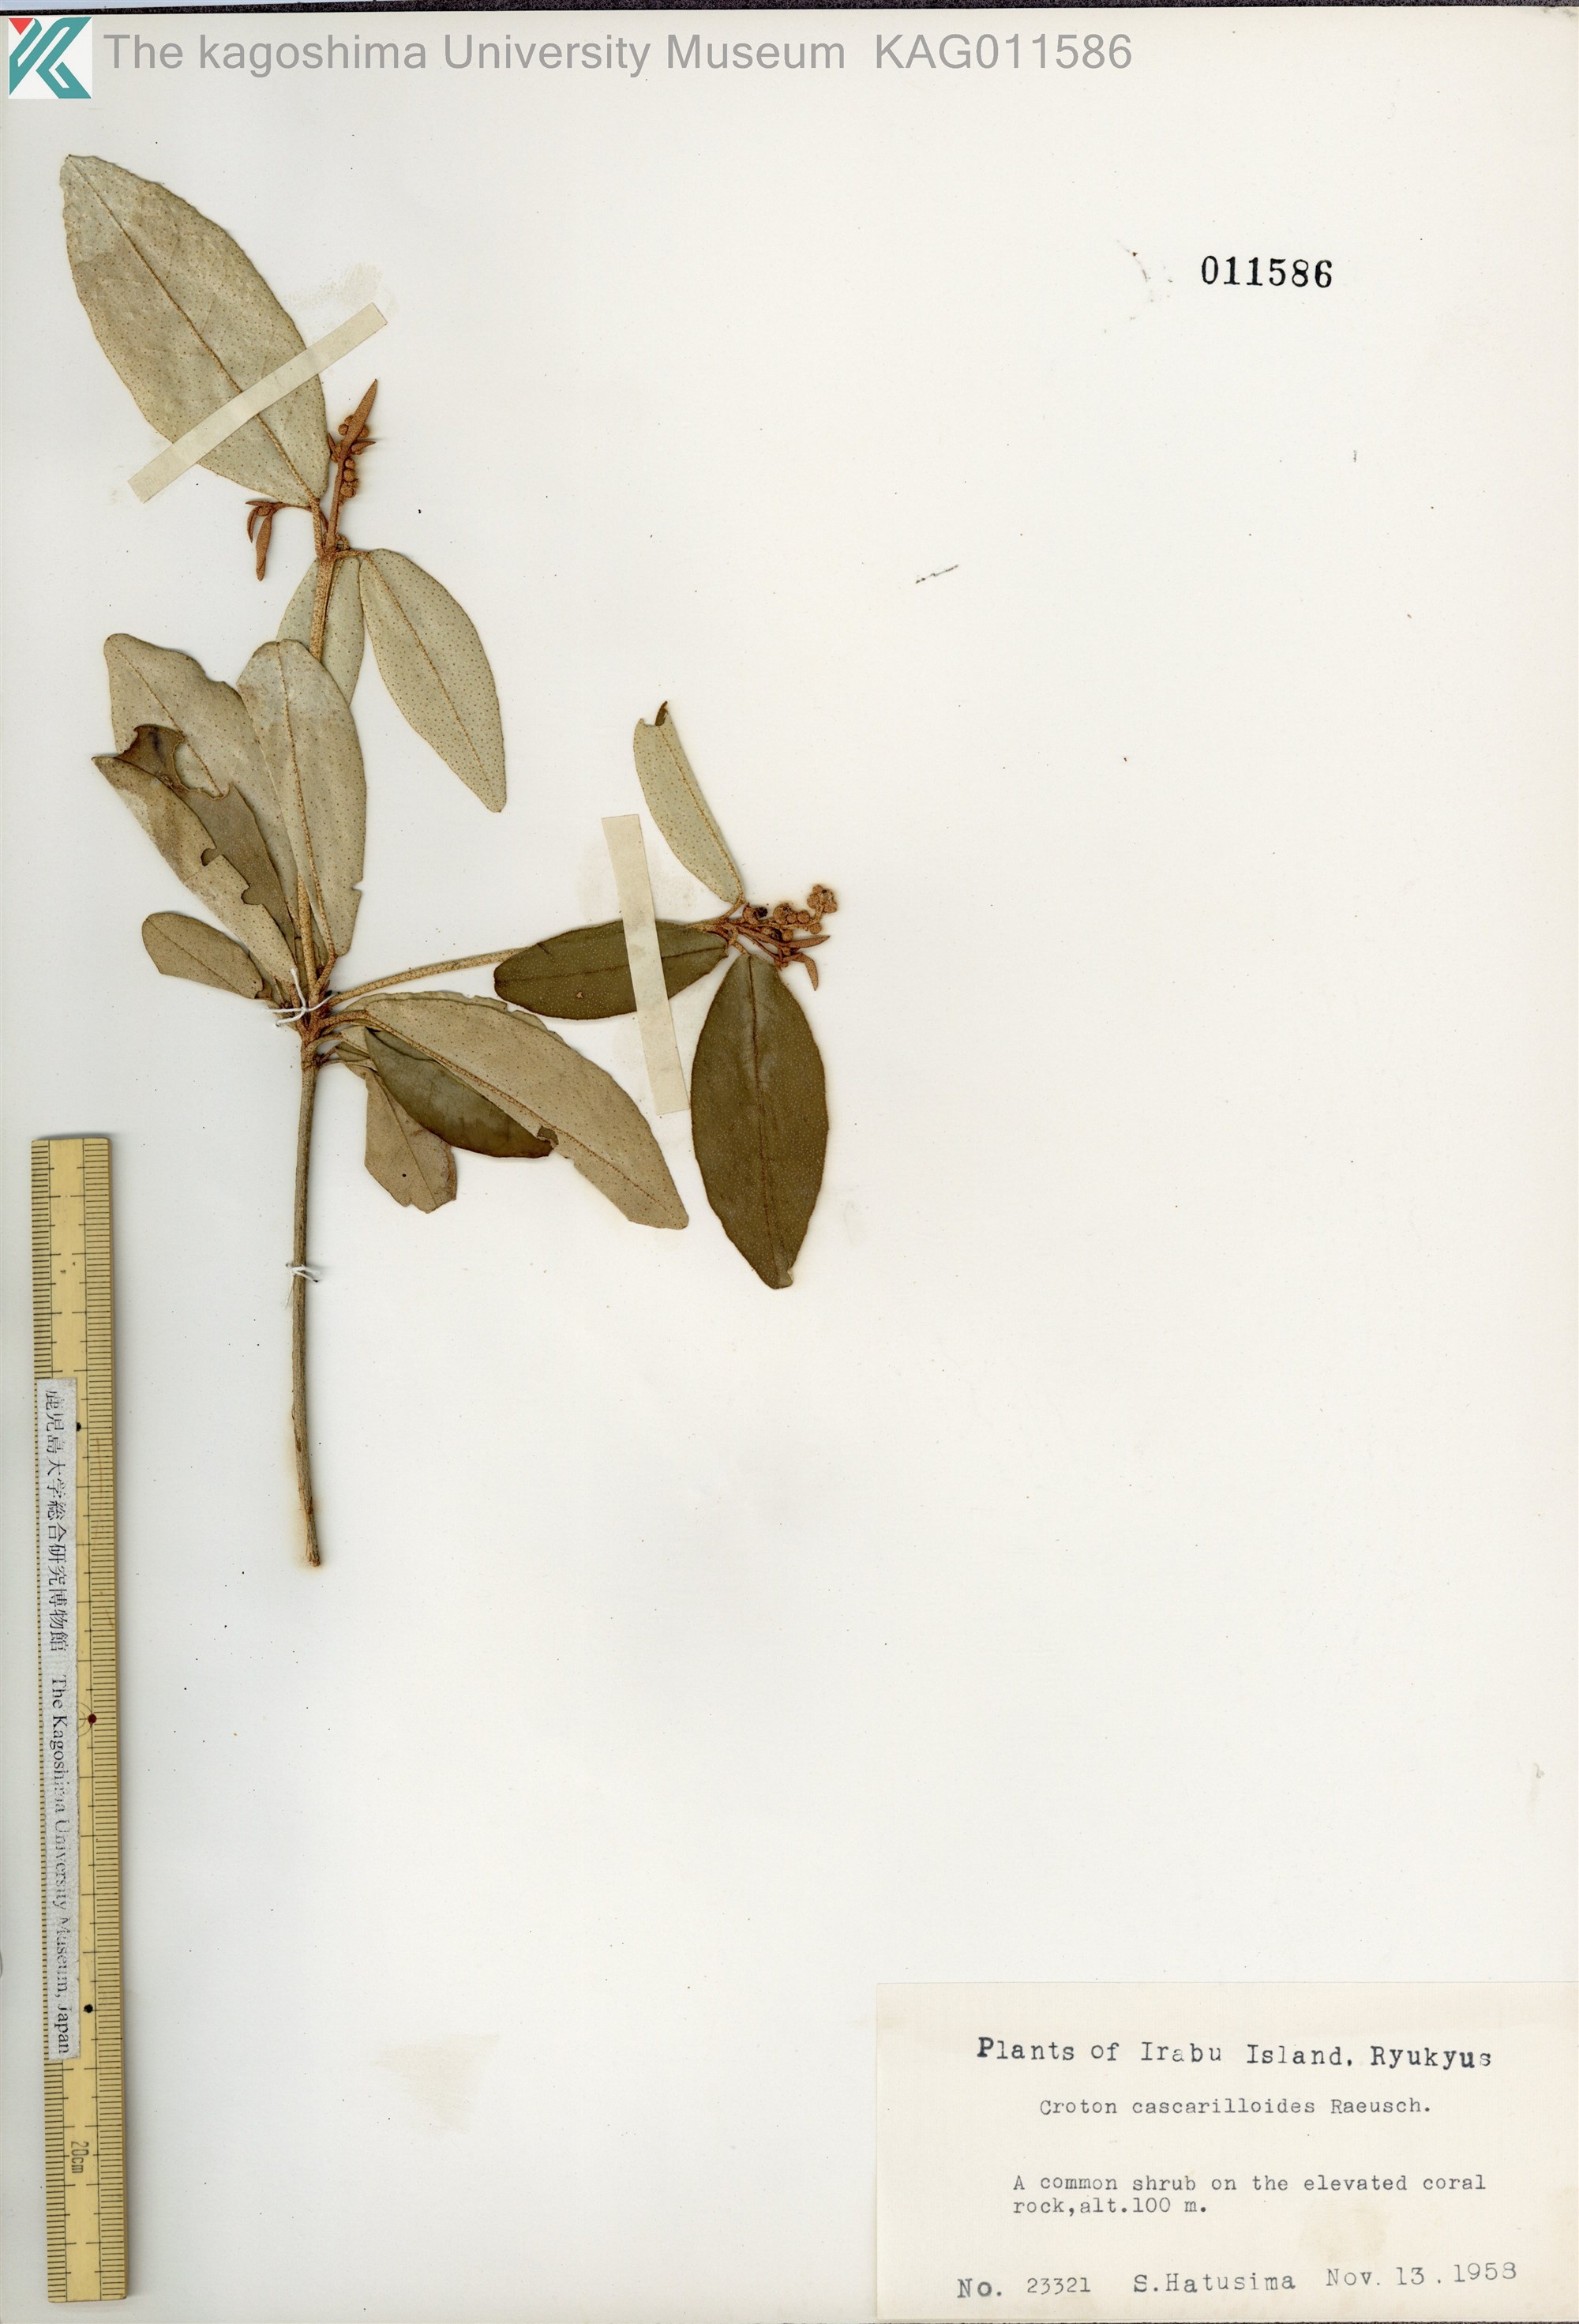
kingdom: Plantae
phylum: Tracheophyta
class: Magnoliopsida
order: Malpighiales
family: Euphorbiaceae
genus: Croton
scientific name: Croton cascarilloides
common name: グミモドキ
